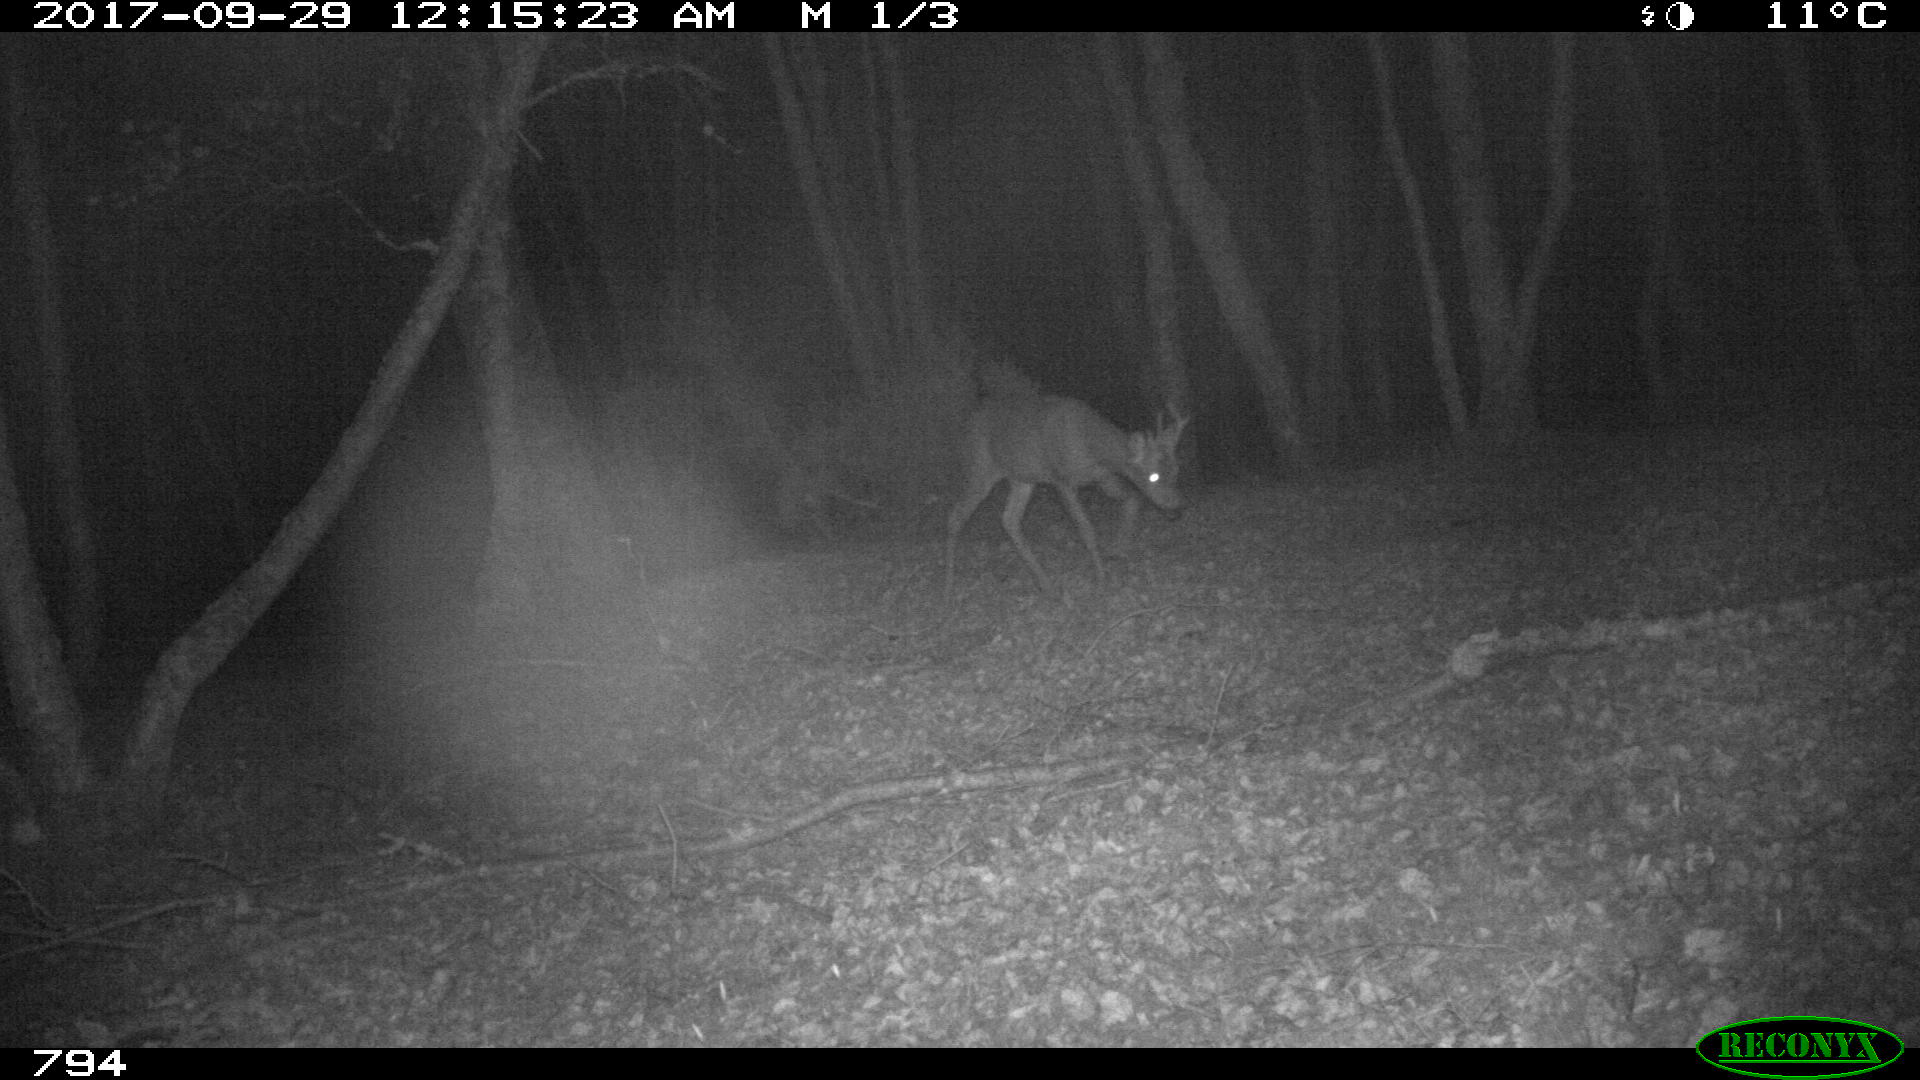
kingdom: Animalia
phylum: Chordata
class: Mammalia
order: Artiodactyla
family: Cervidae
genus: Capreolus
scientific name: Capreolus capreolus
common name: Western roe deer
